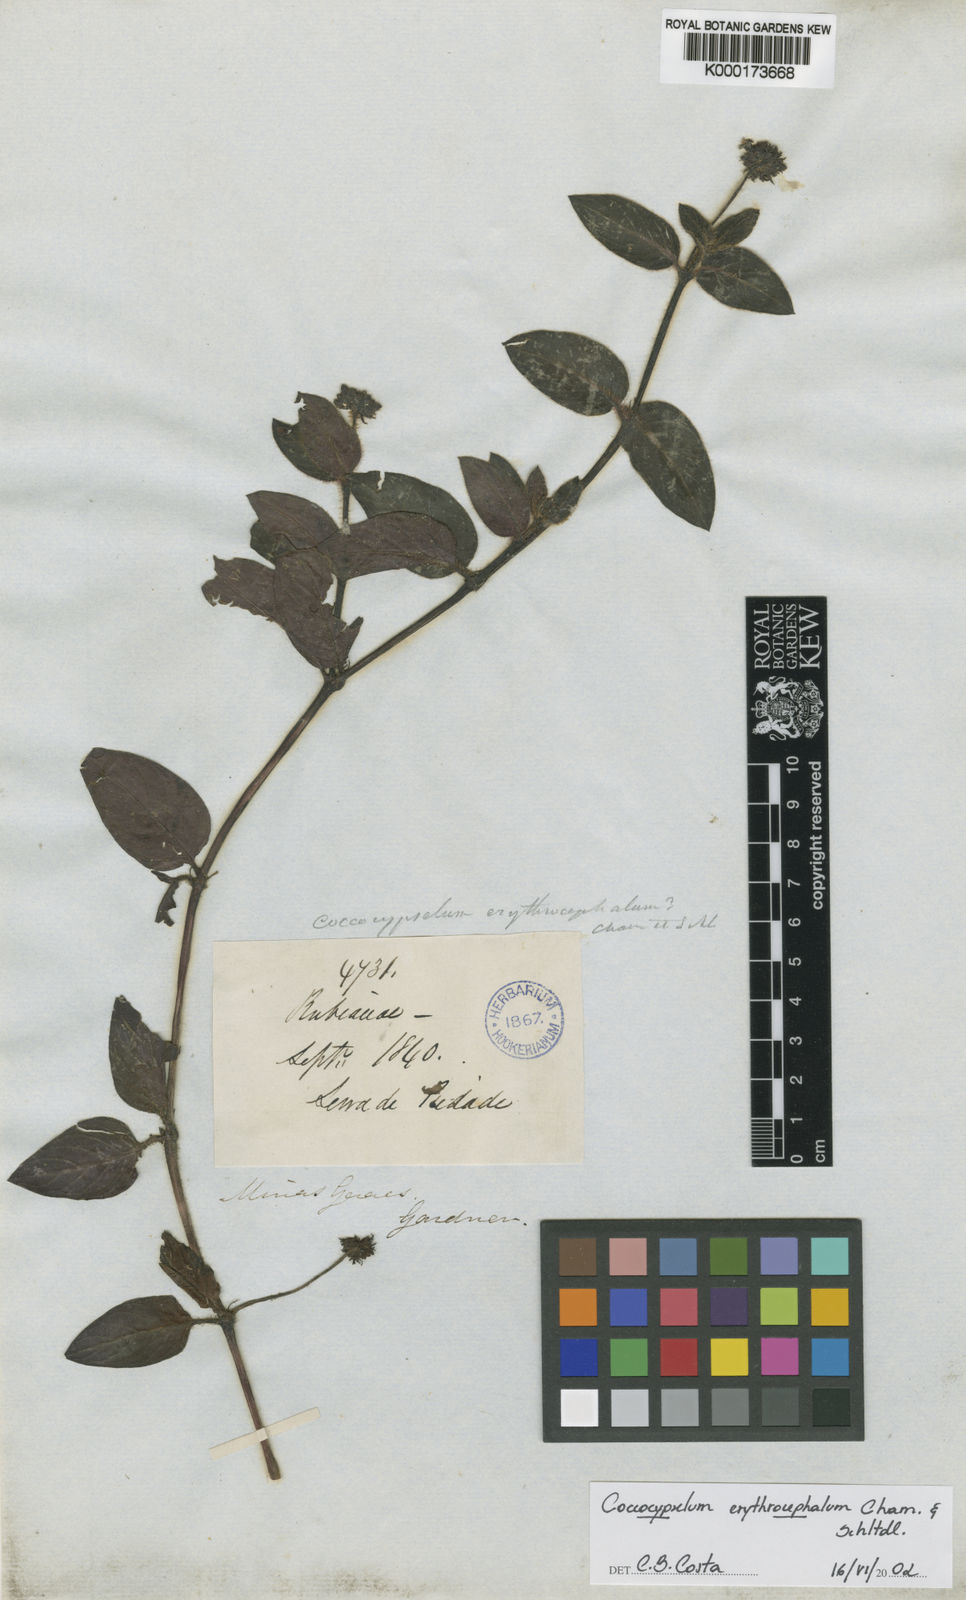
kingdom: Plantae
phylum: Tracheophyta
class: Magnoliopsida
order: Gentianales
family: Rubiaceae
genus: Coccocypselum
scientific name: Coccocypselum erythrocephalum
